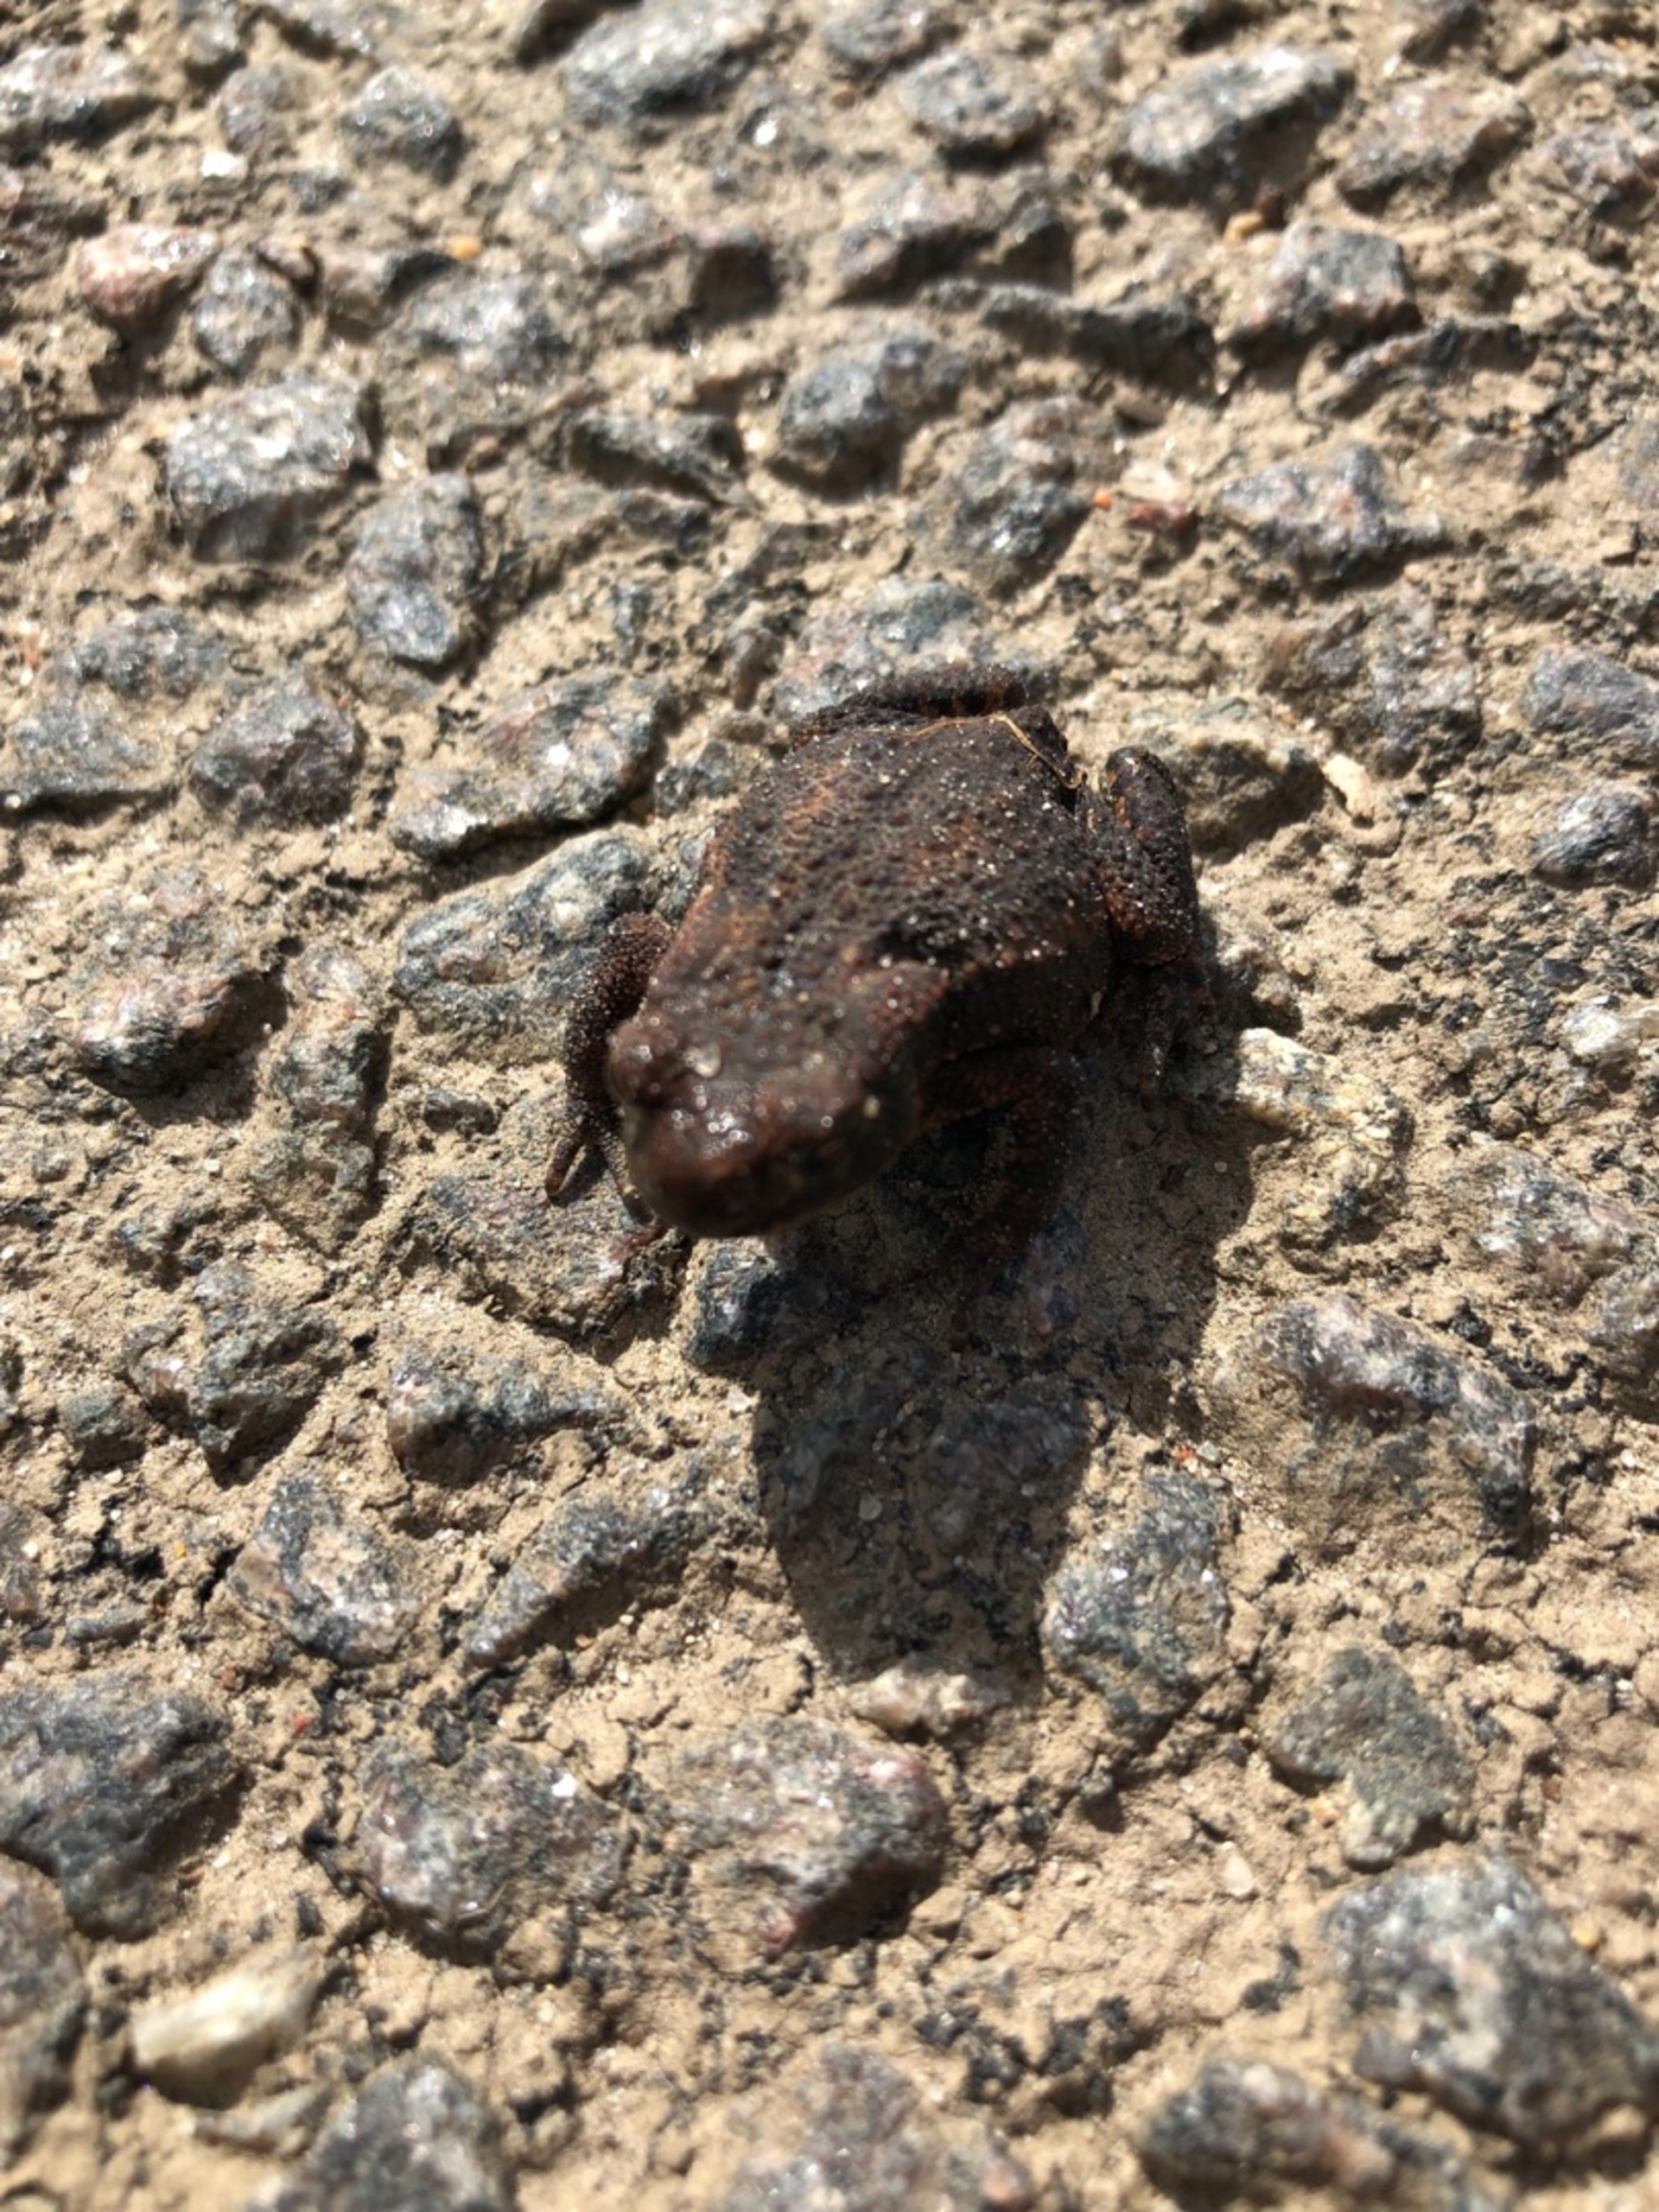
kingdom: Animalia
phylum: Chordata
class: Amphibia
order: Anura
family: Bufonidae
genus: Bufo
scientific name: Bufo bufo
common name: Skrubtudse
